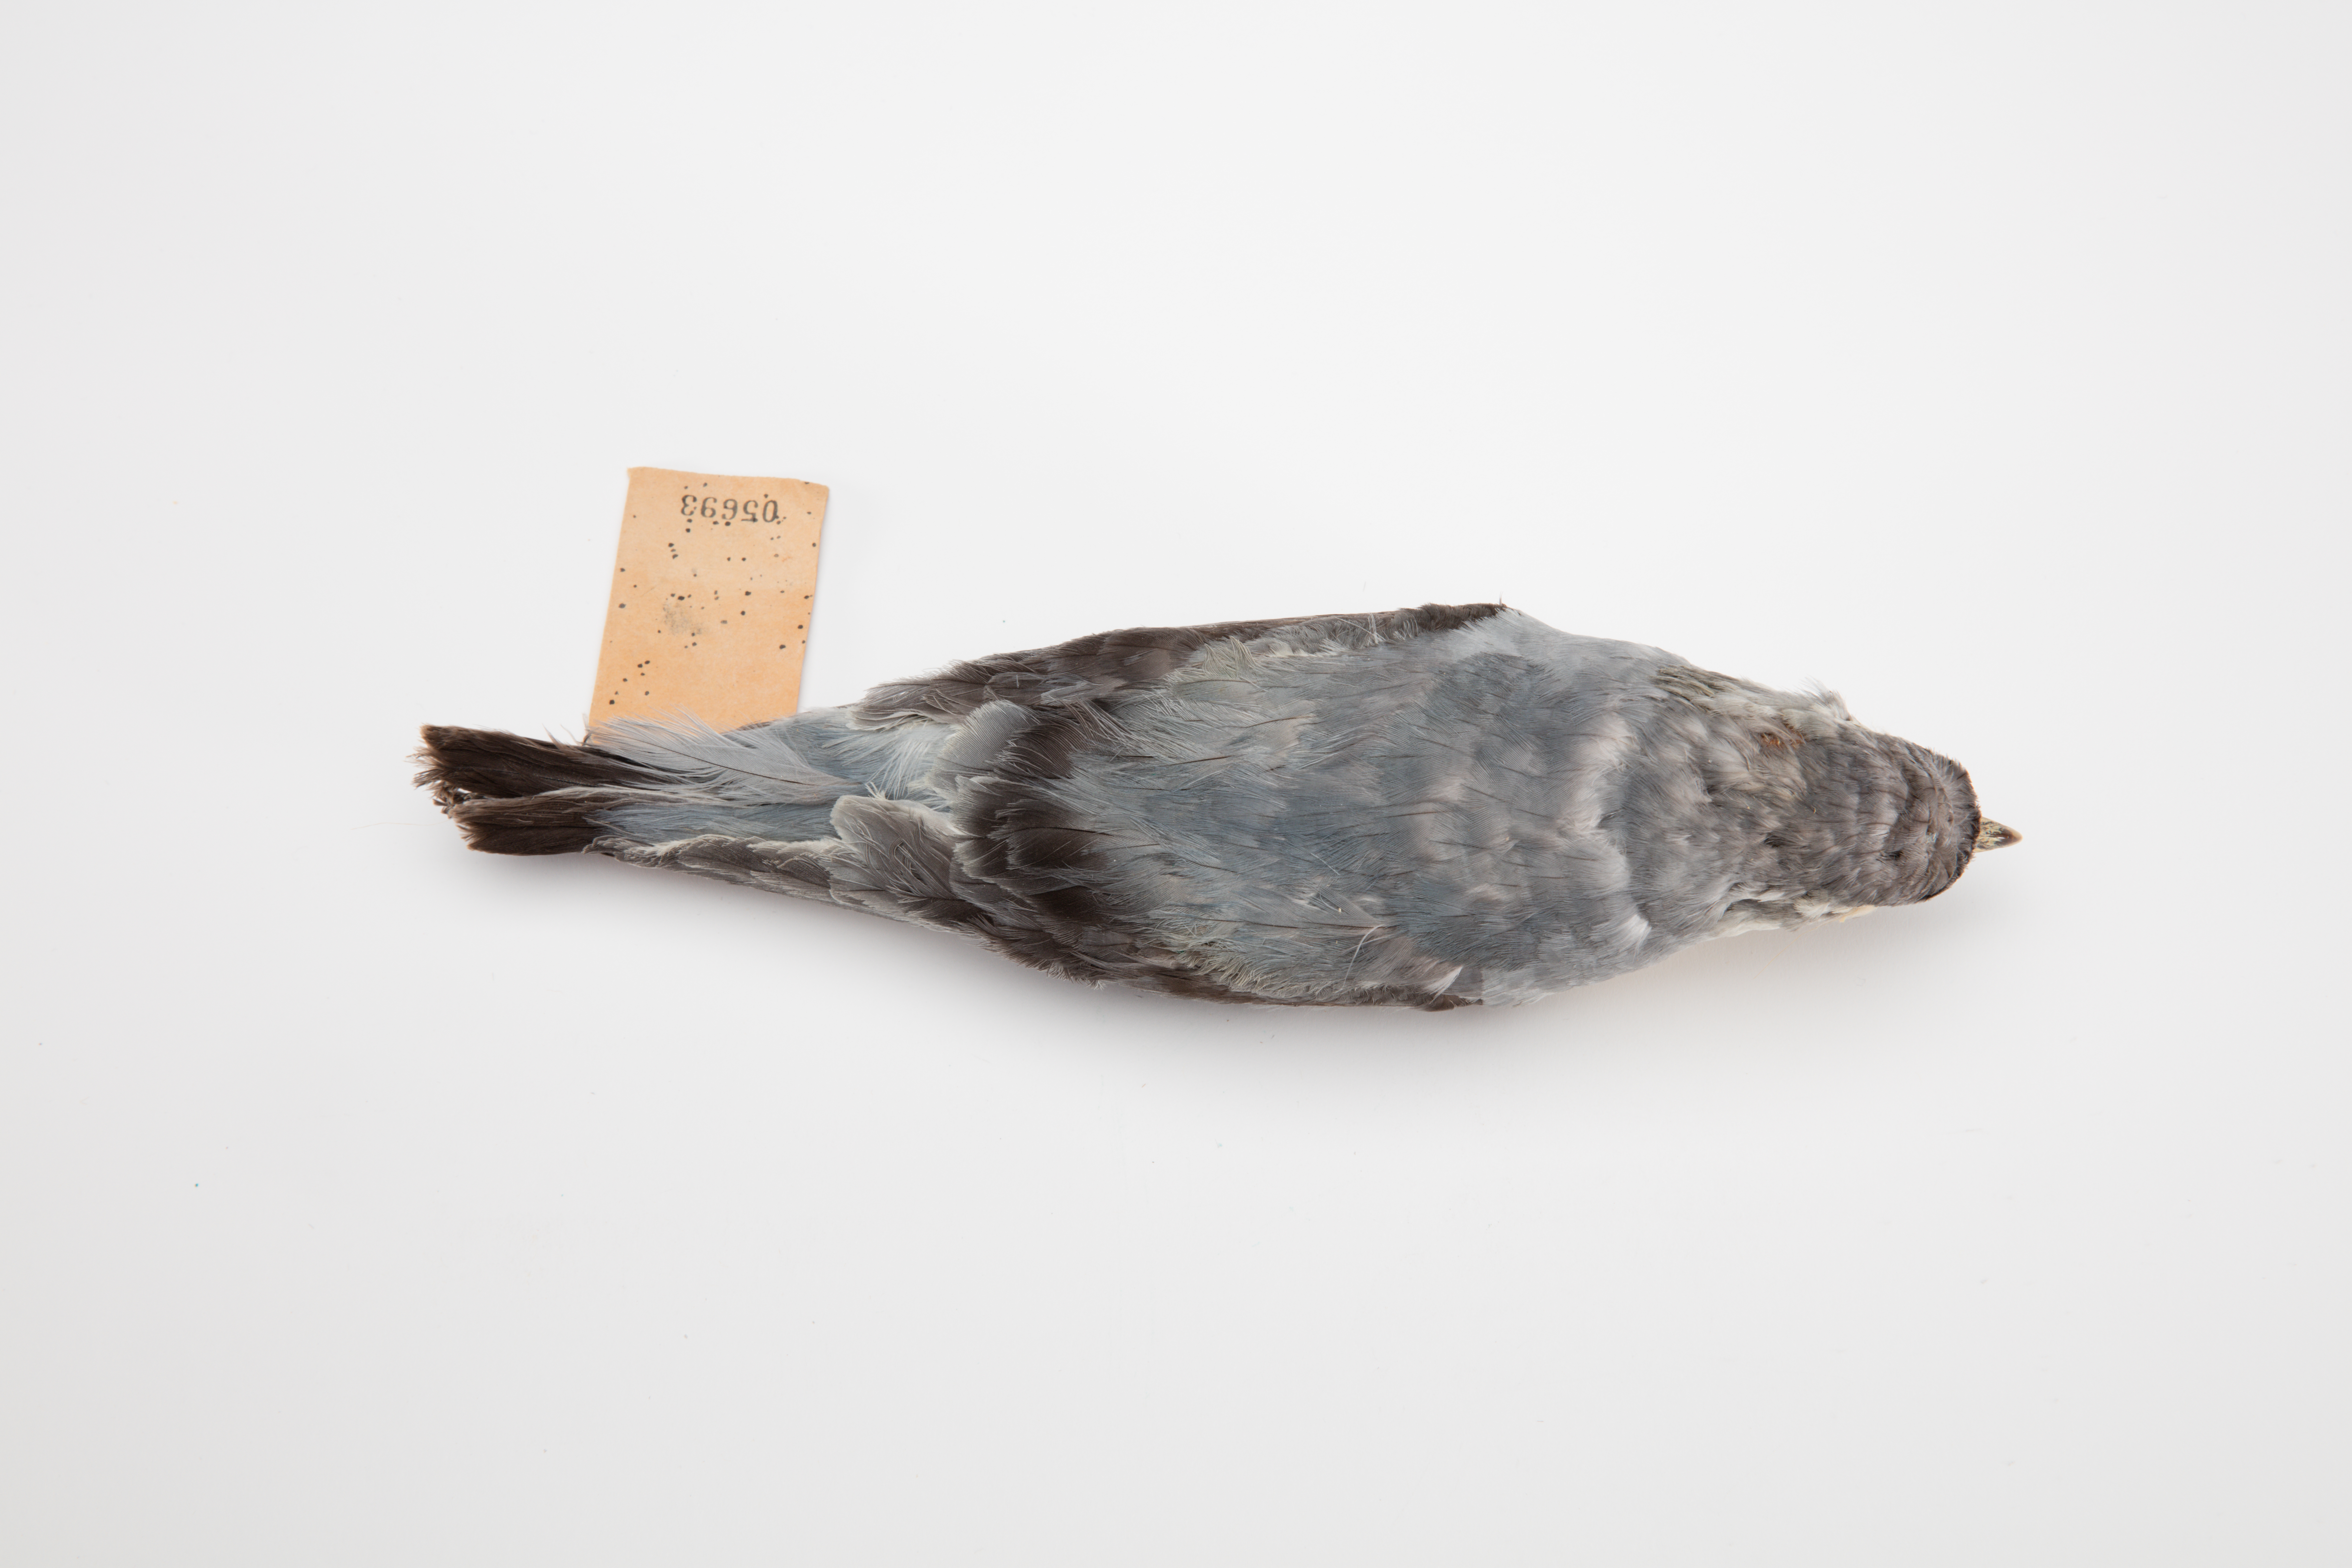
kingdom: Animalia
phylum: Chordata
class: Aves
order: Procellariiformes
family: Procellariidae
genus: Pachyptila
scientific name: Pachyptila turtur
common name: Fairy prion
